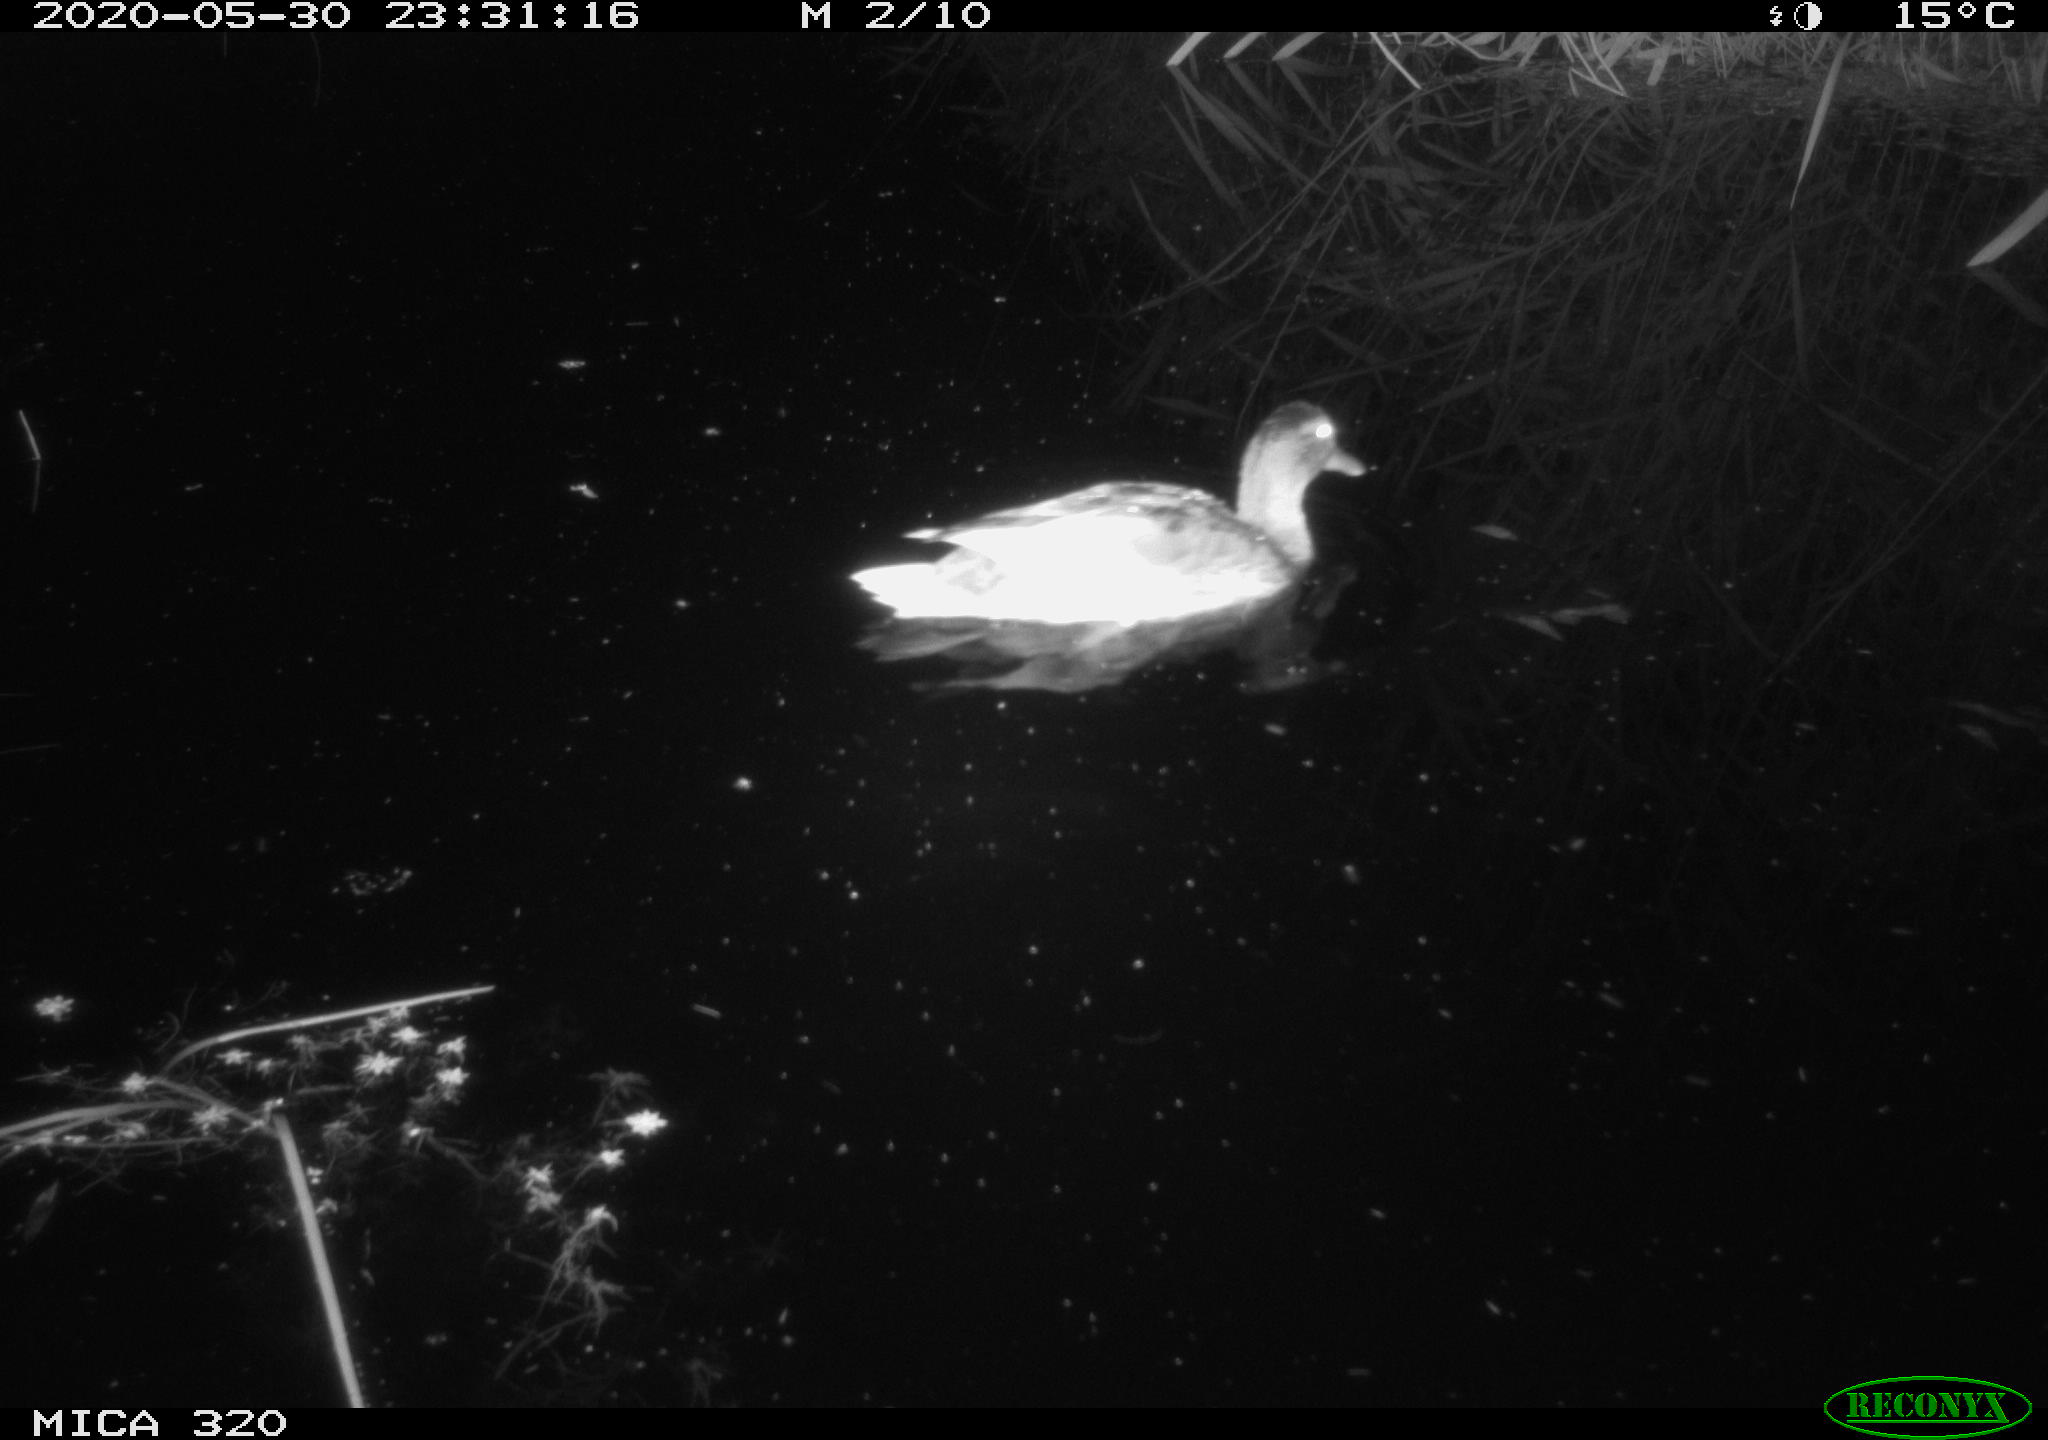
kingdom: Animalia
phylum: Chordata
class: Aves
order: Anseriformes
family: Anatidae
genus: Anas
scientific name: Anas platyrhynchos
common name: Mallard
